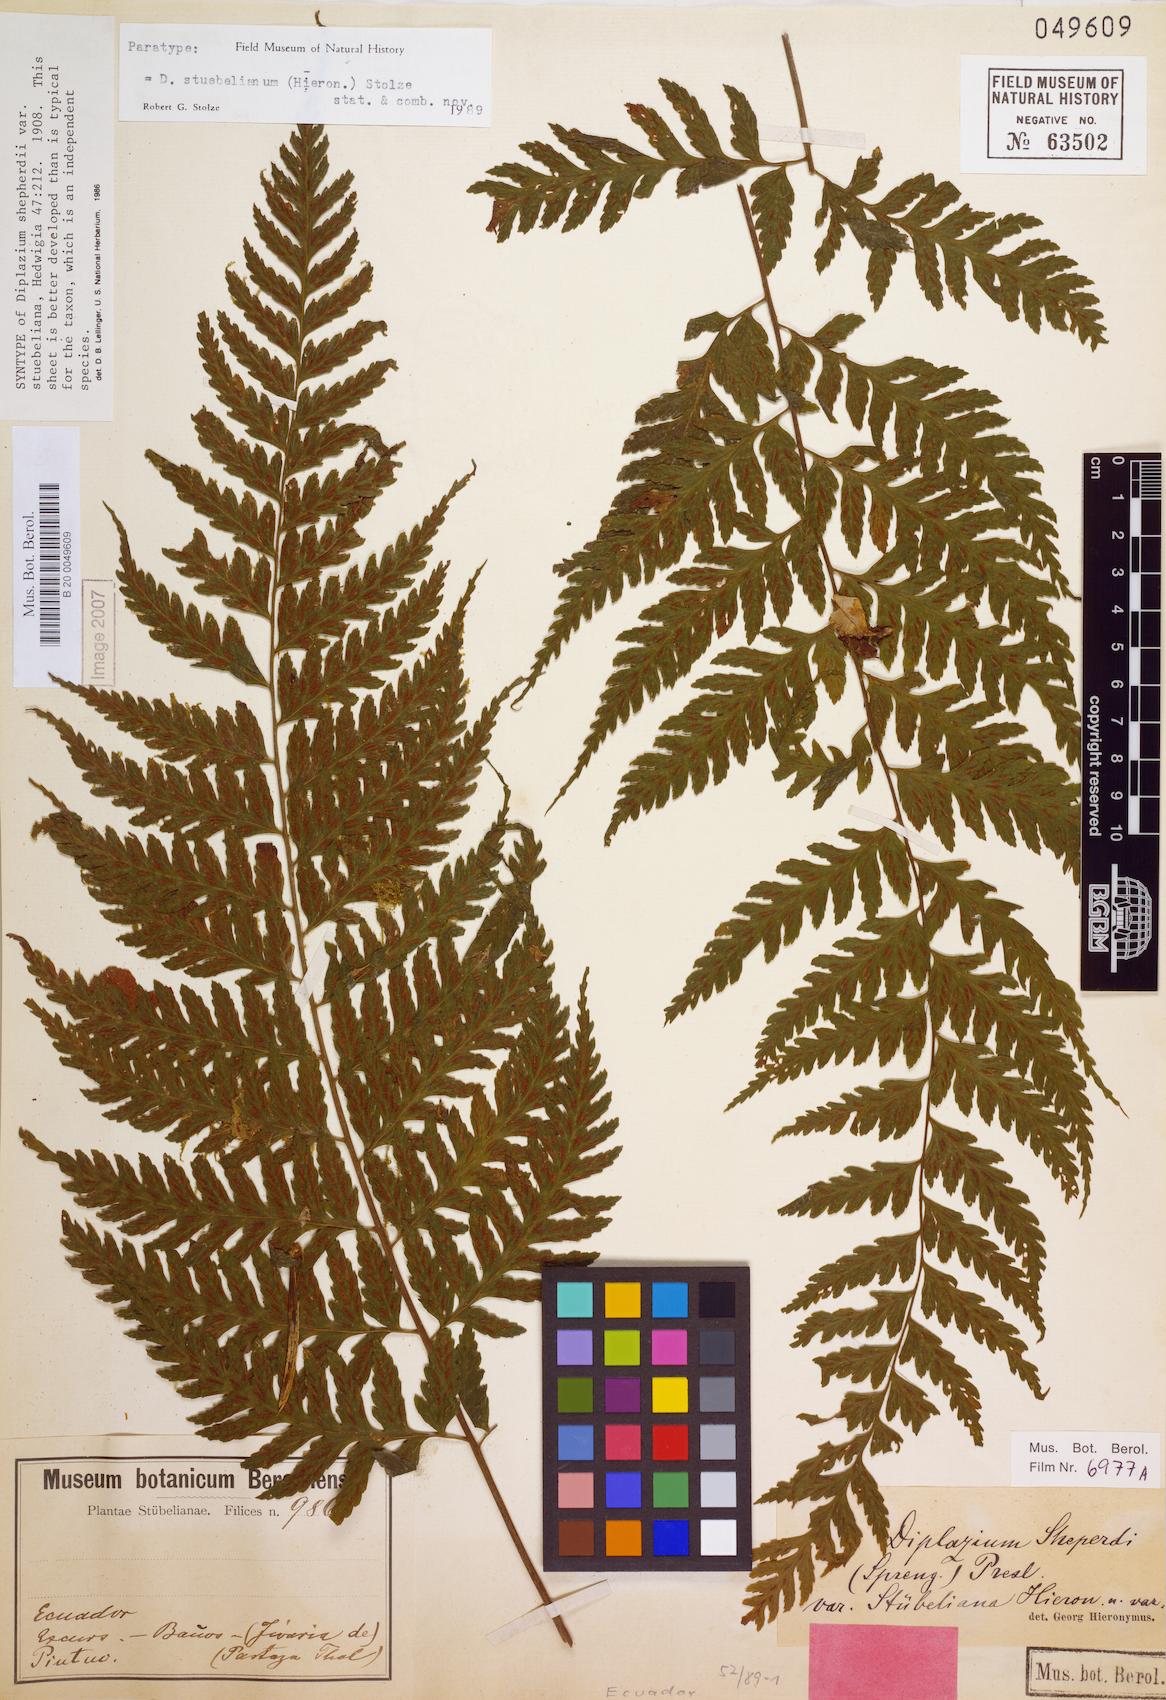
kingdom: Plantae
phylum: Tracheophyta
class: Polypodiopsida
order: Polypodiales
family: Athyriaceae
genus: Diplazium
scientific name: Diplazium stuebelianum
